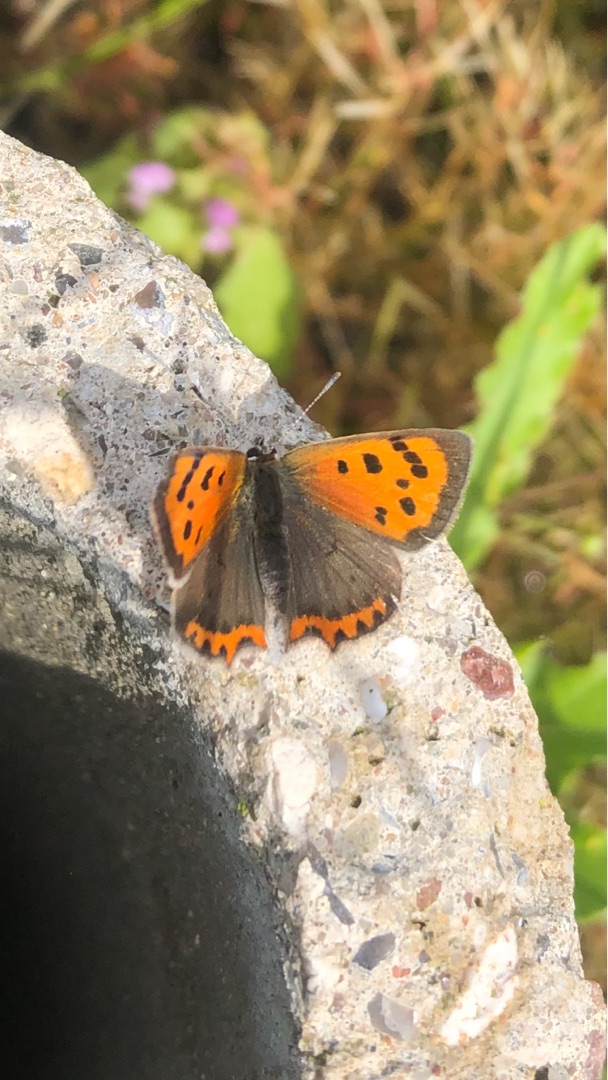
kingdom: Animalia
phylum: Arthropoda
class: Insecta
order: Lepidoptera
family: Lycaenidae
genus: Lycaena
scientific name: Lycaena phlaeas
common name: Lille ildfugl
